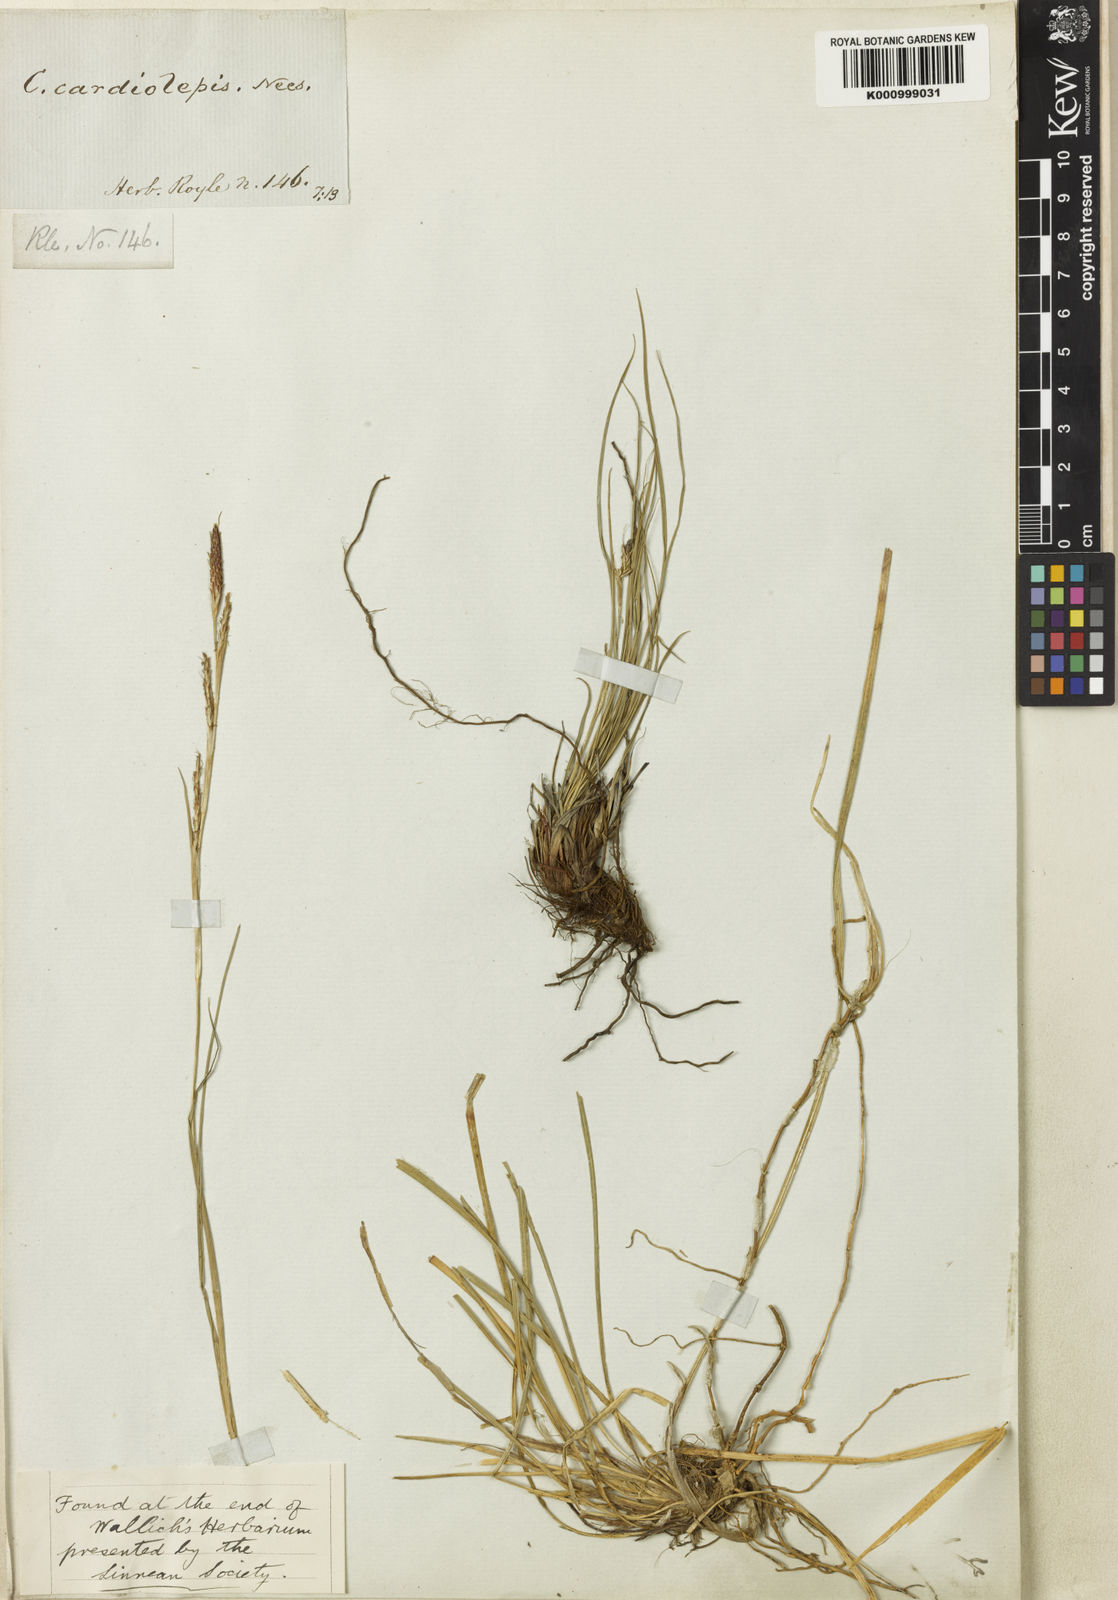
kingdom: Plantae
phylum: Tracheophyta
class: Liliopsida
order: Poales
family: Cyperaceae
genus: Carex
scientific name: Carex cardiolepis
